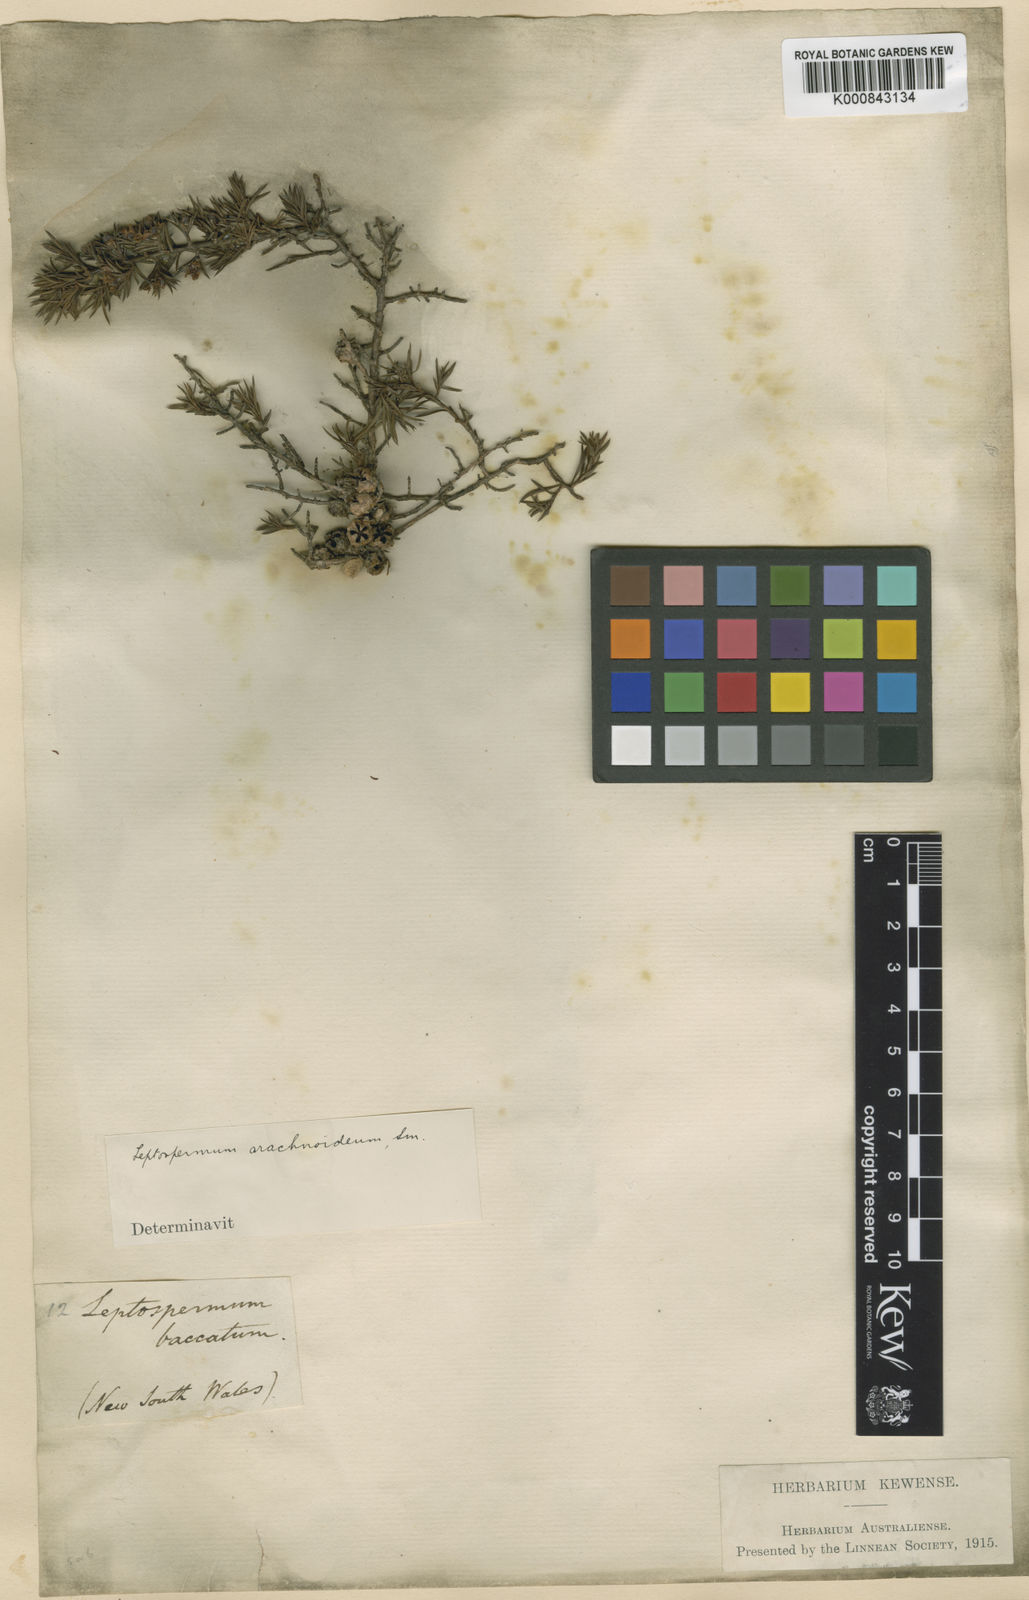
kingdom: Plantae
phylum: Tracheophyta
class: Magnoliopsida
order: Myrtales
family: Myrtaceae
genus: Leptospermum
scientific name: Leptospermum arachnoides
